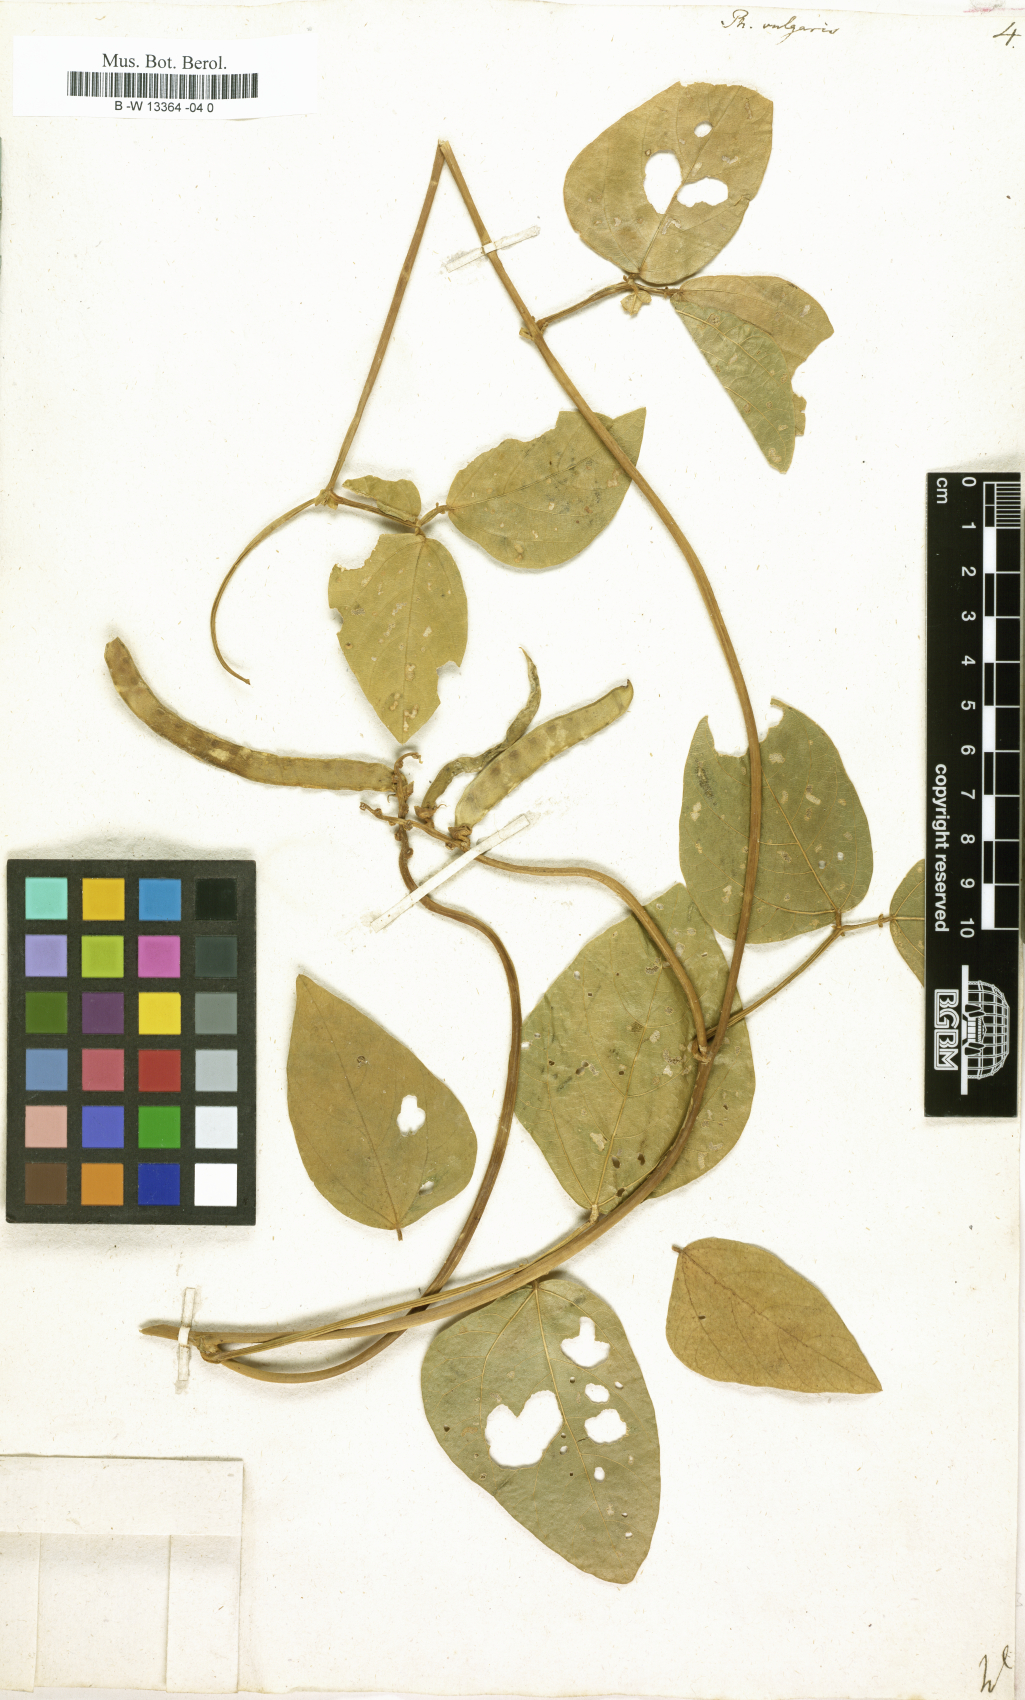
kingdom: Plantae
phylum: Tracheophyta
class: Magnoliopsida
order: Fabales
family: Fabaceae
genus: Phaseolus
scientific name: Phaseolus vulgaris
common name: Bean
